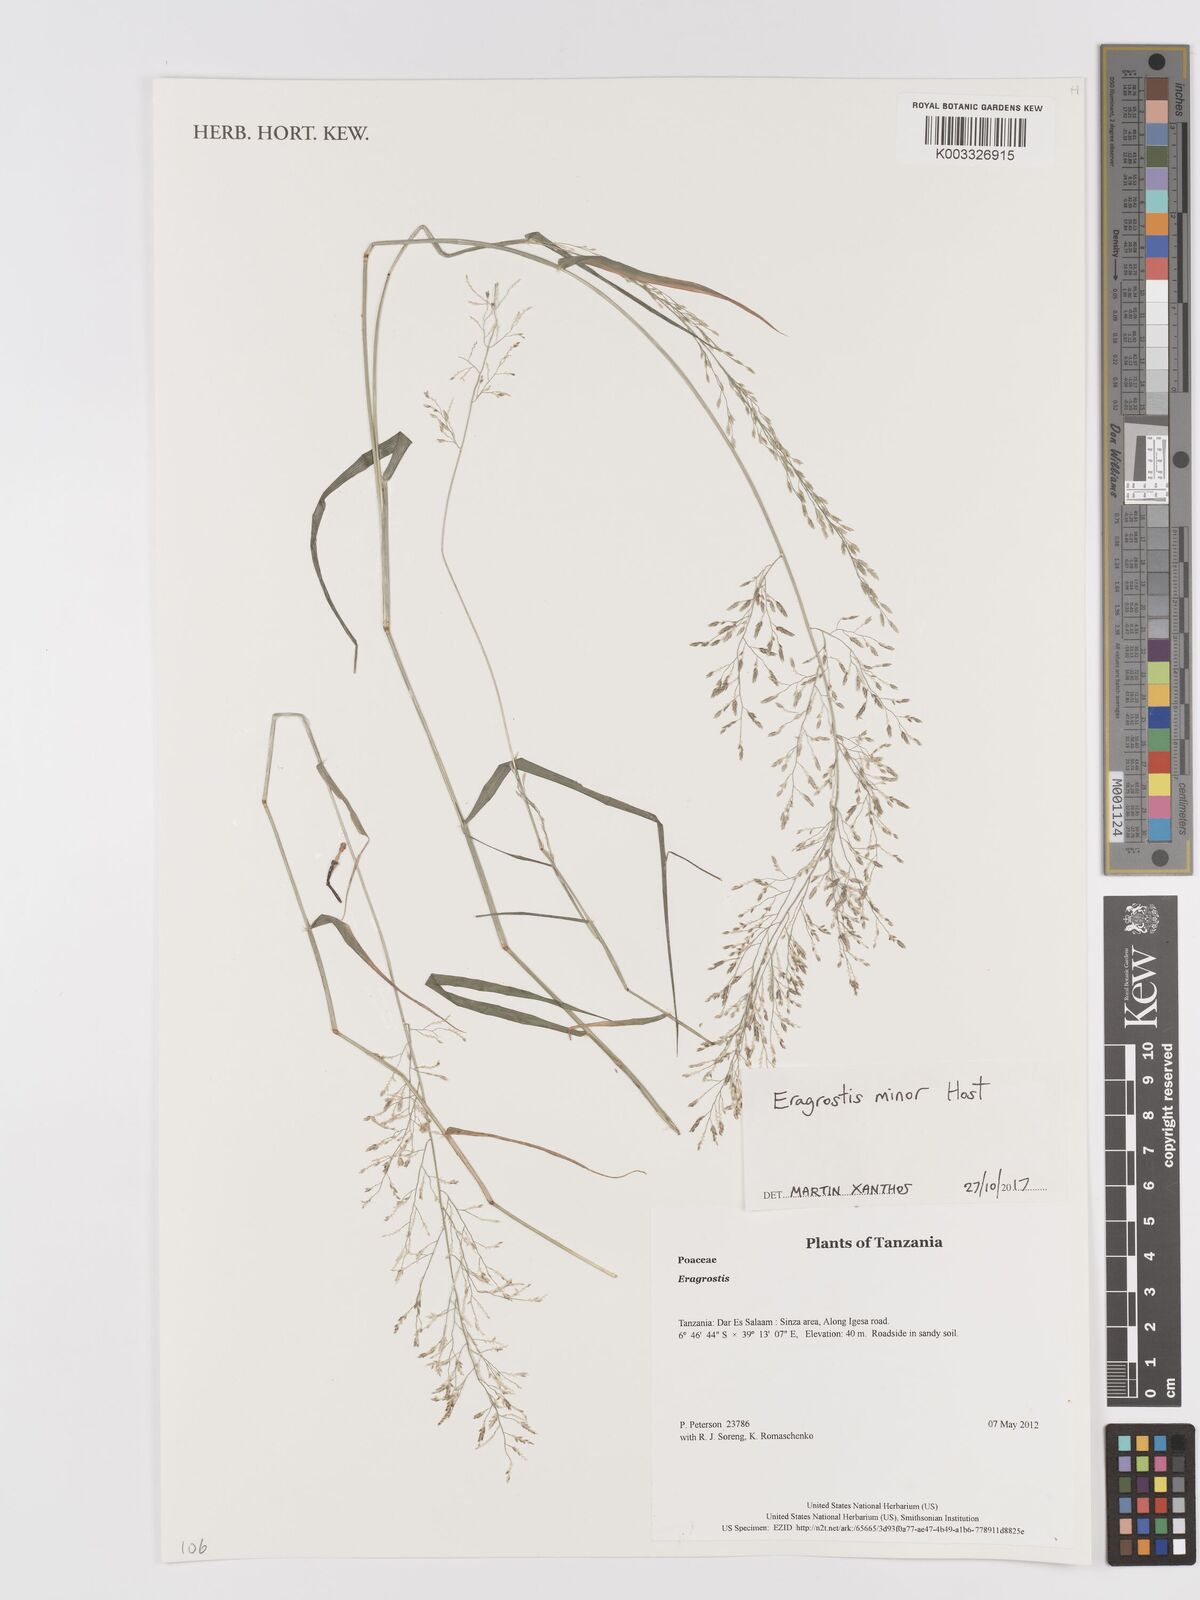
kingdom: Plantae
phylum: Tracheophyta
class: Liliopsida
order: Poales
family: Poaceae
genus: Eragrostis
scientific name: Eragrostis minor
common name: Small love-grass
